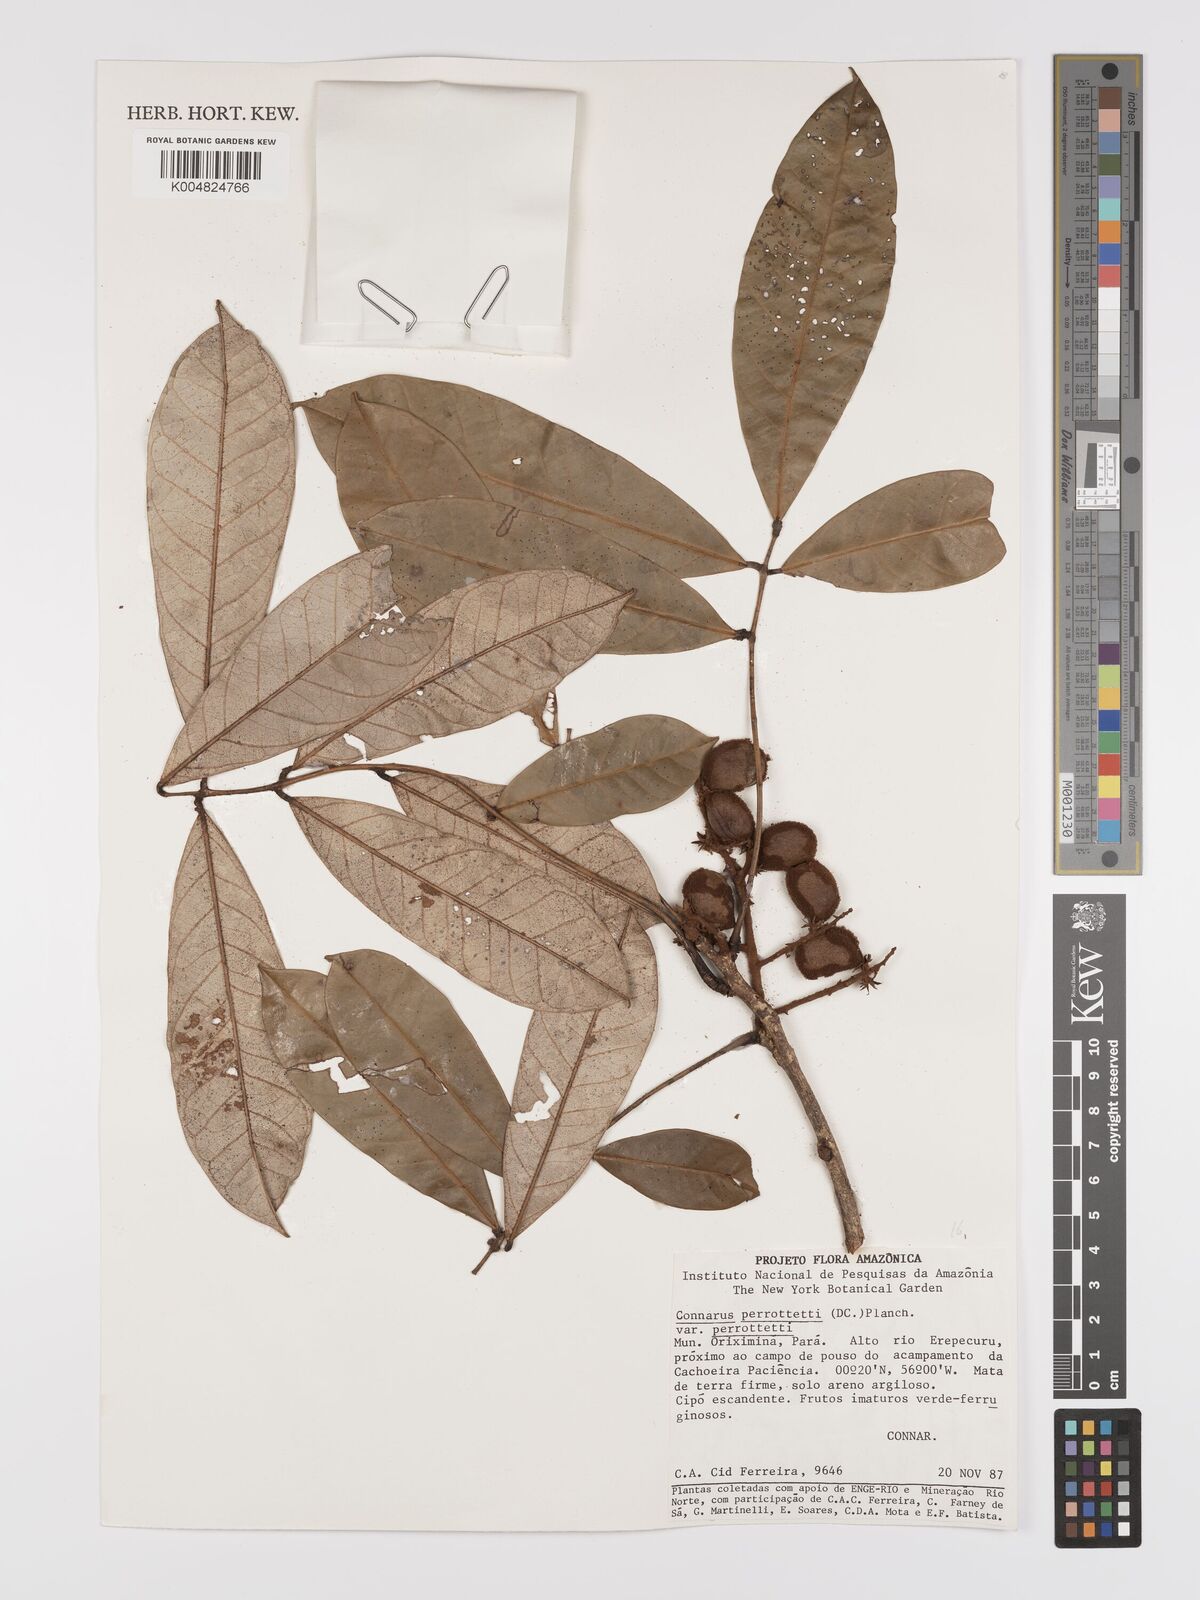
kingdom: Plantae
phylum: Tracheophyta
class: Magnoliopsida
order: Oxalidales
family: Connaraceae
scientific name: Connaraceae
